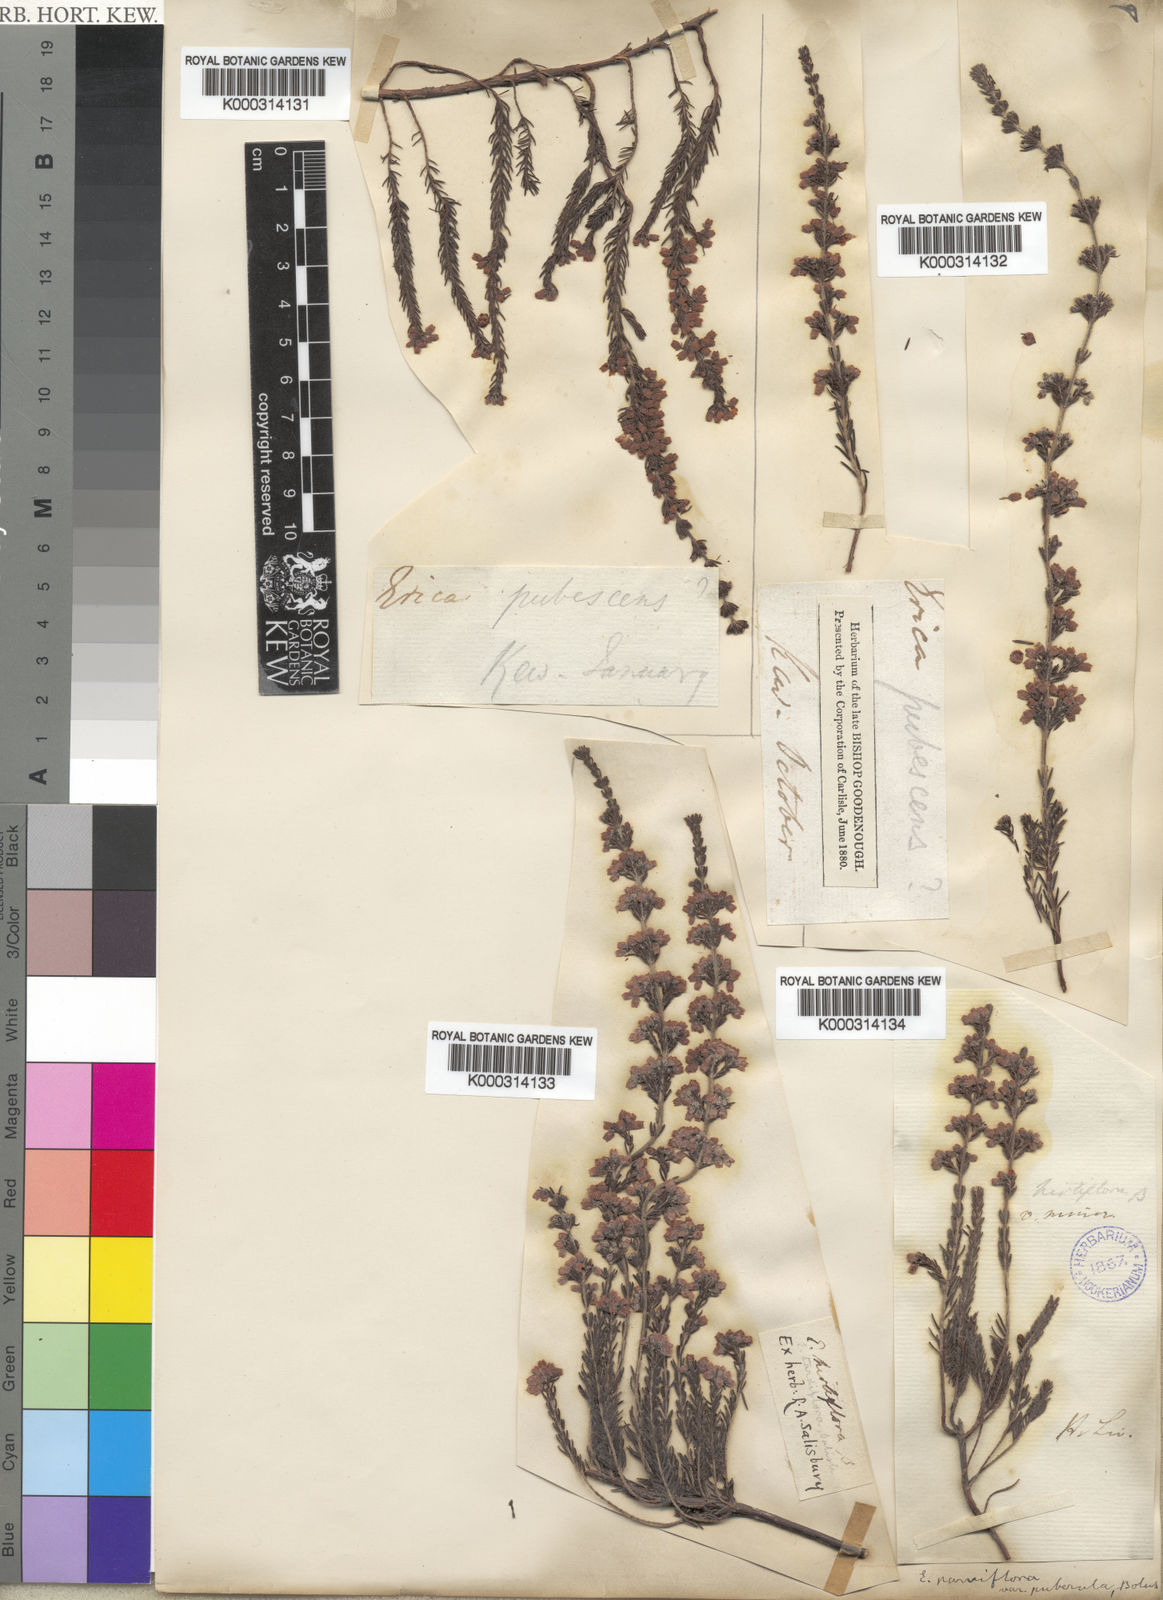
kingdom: Plantae
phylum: Tracheophyta
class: Magnoliopsida
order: Ericales
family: Ericaceae
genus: Erica
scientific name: Erica parviflora
